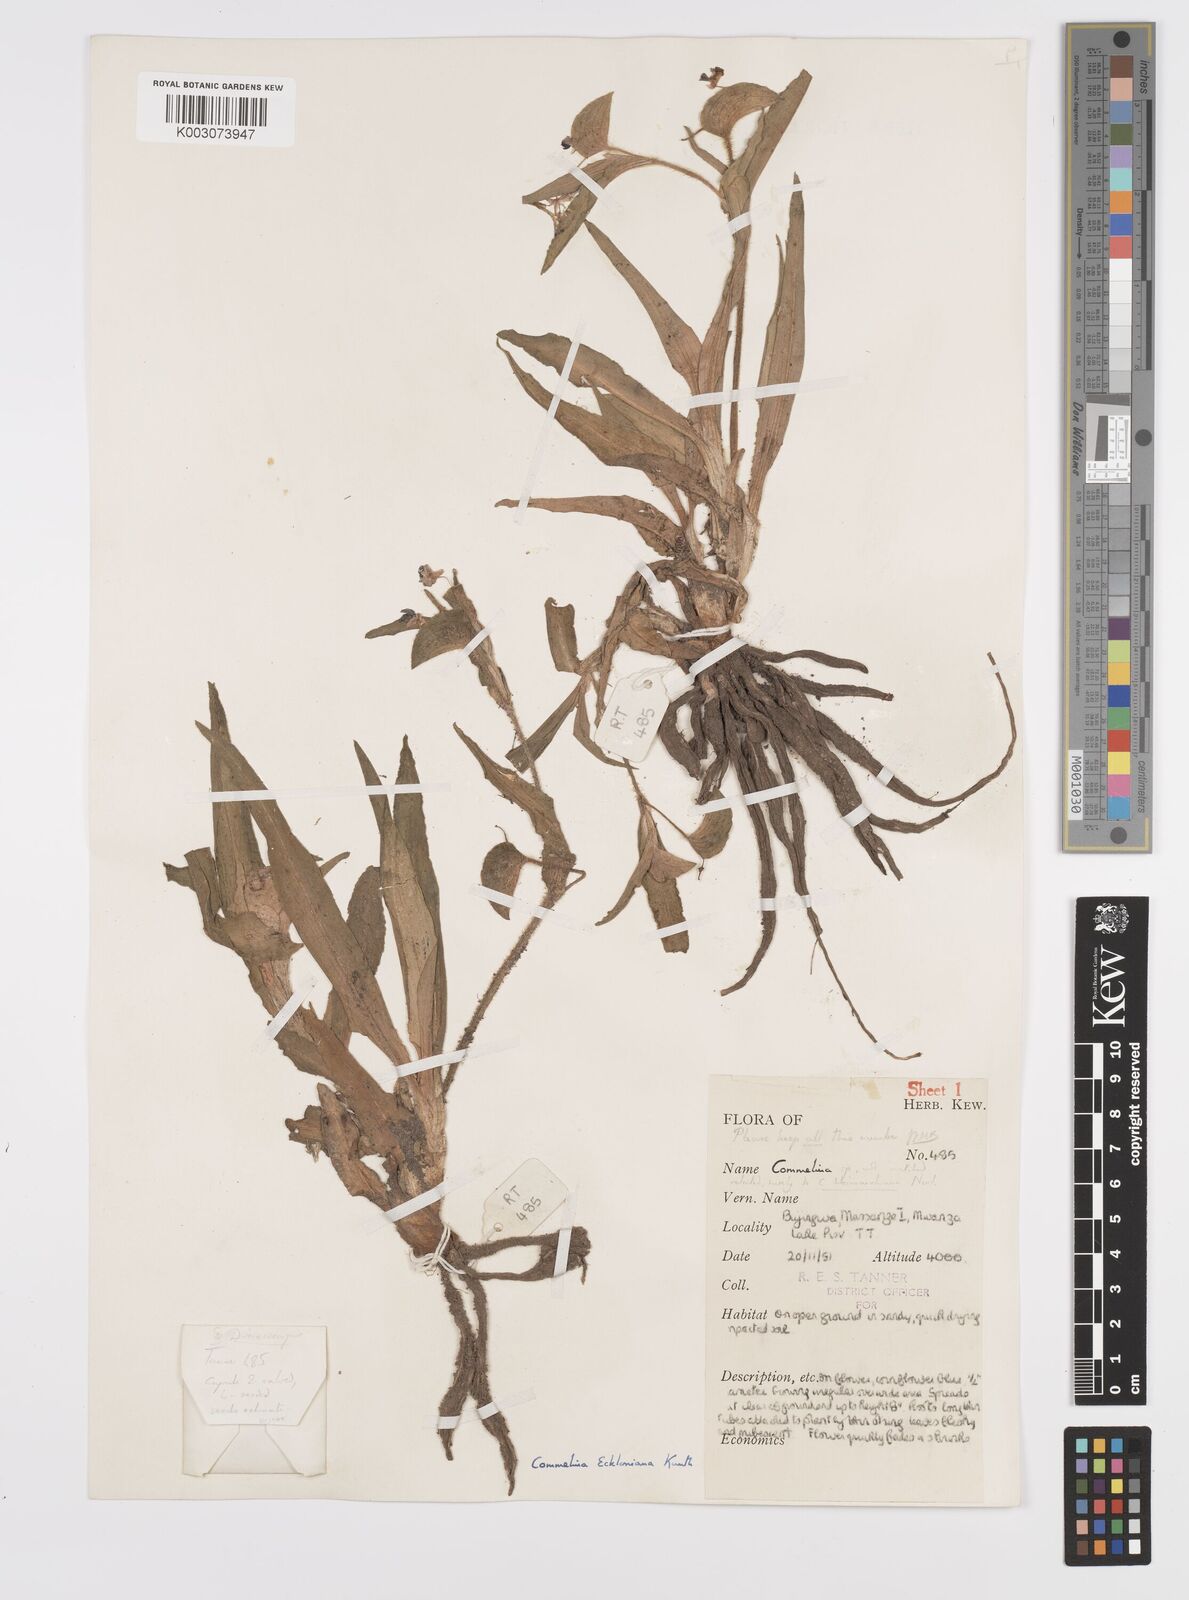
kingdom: Plantae
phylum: Tracheophyta
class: Liliopsida
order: Commelinales
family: Commelinaceae
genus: Commelina
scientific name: Commelina eckloniana
